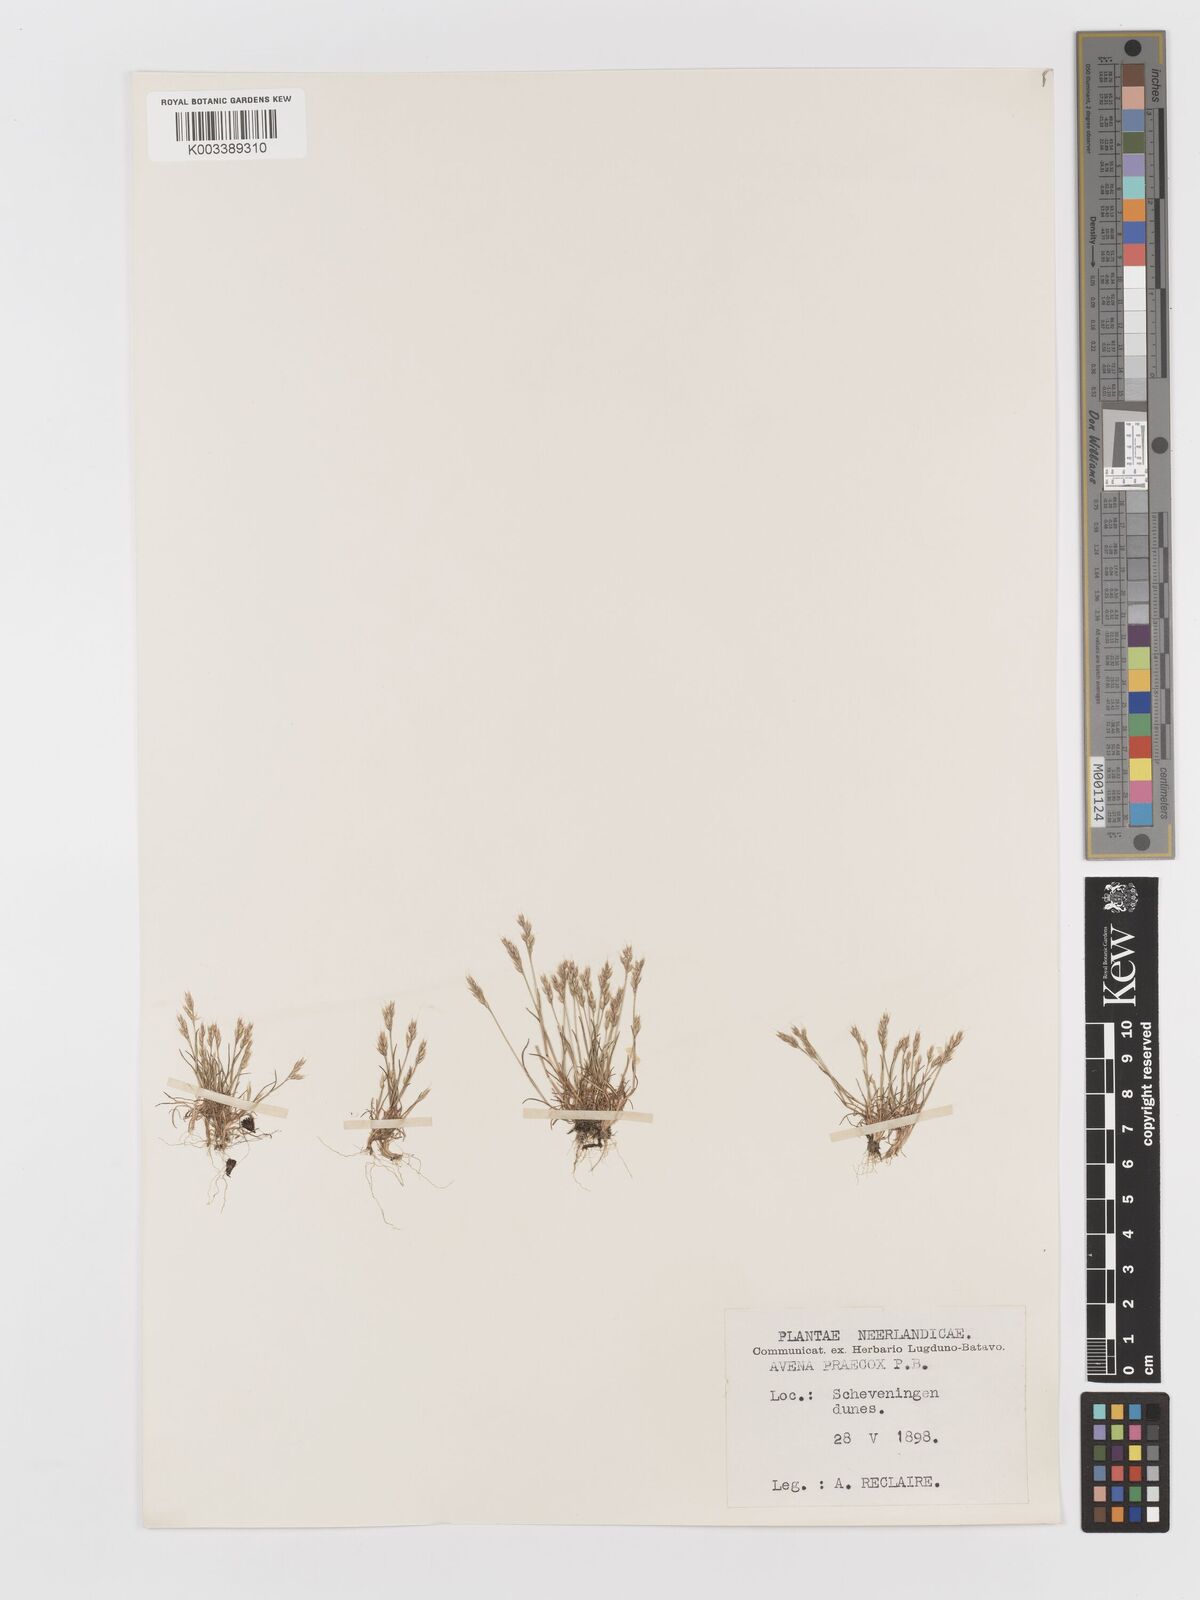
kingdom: Plantae
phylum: Tracheophyta
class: Liliopsida
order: Poales
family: Poaceae
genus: Aira
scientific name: Aira praecox
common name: Early hair-grass
